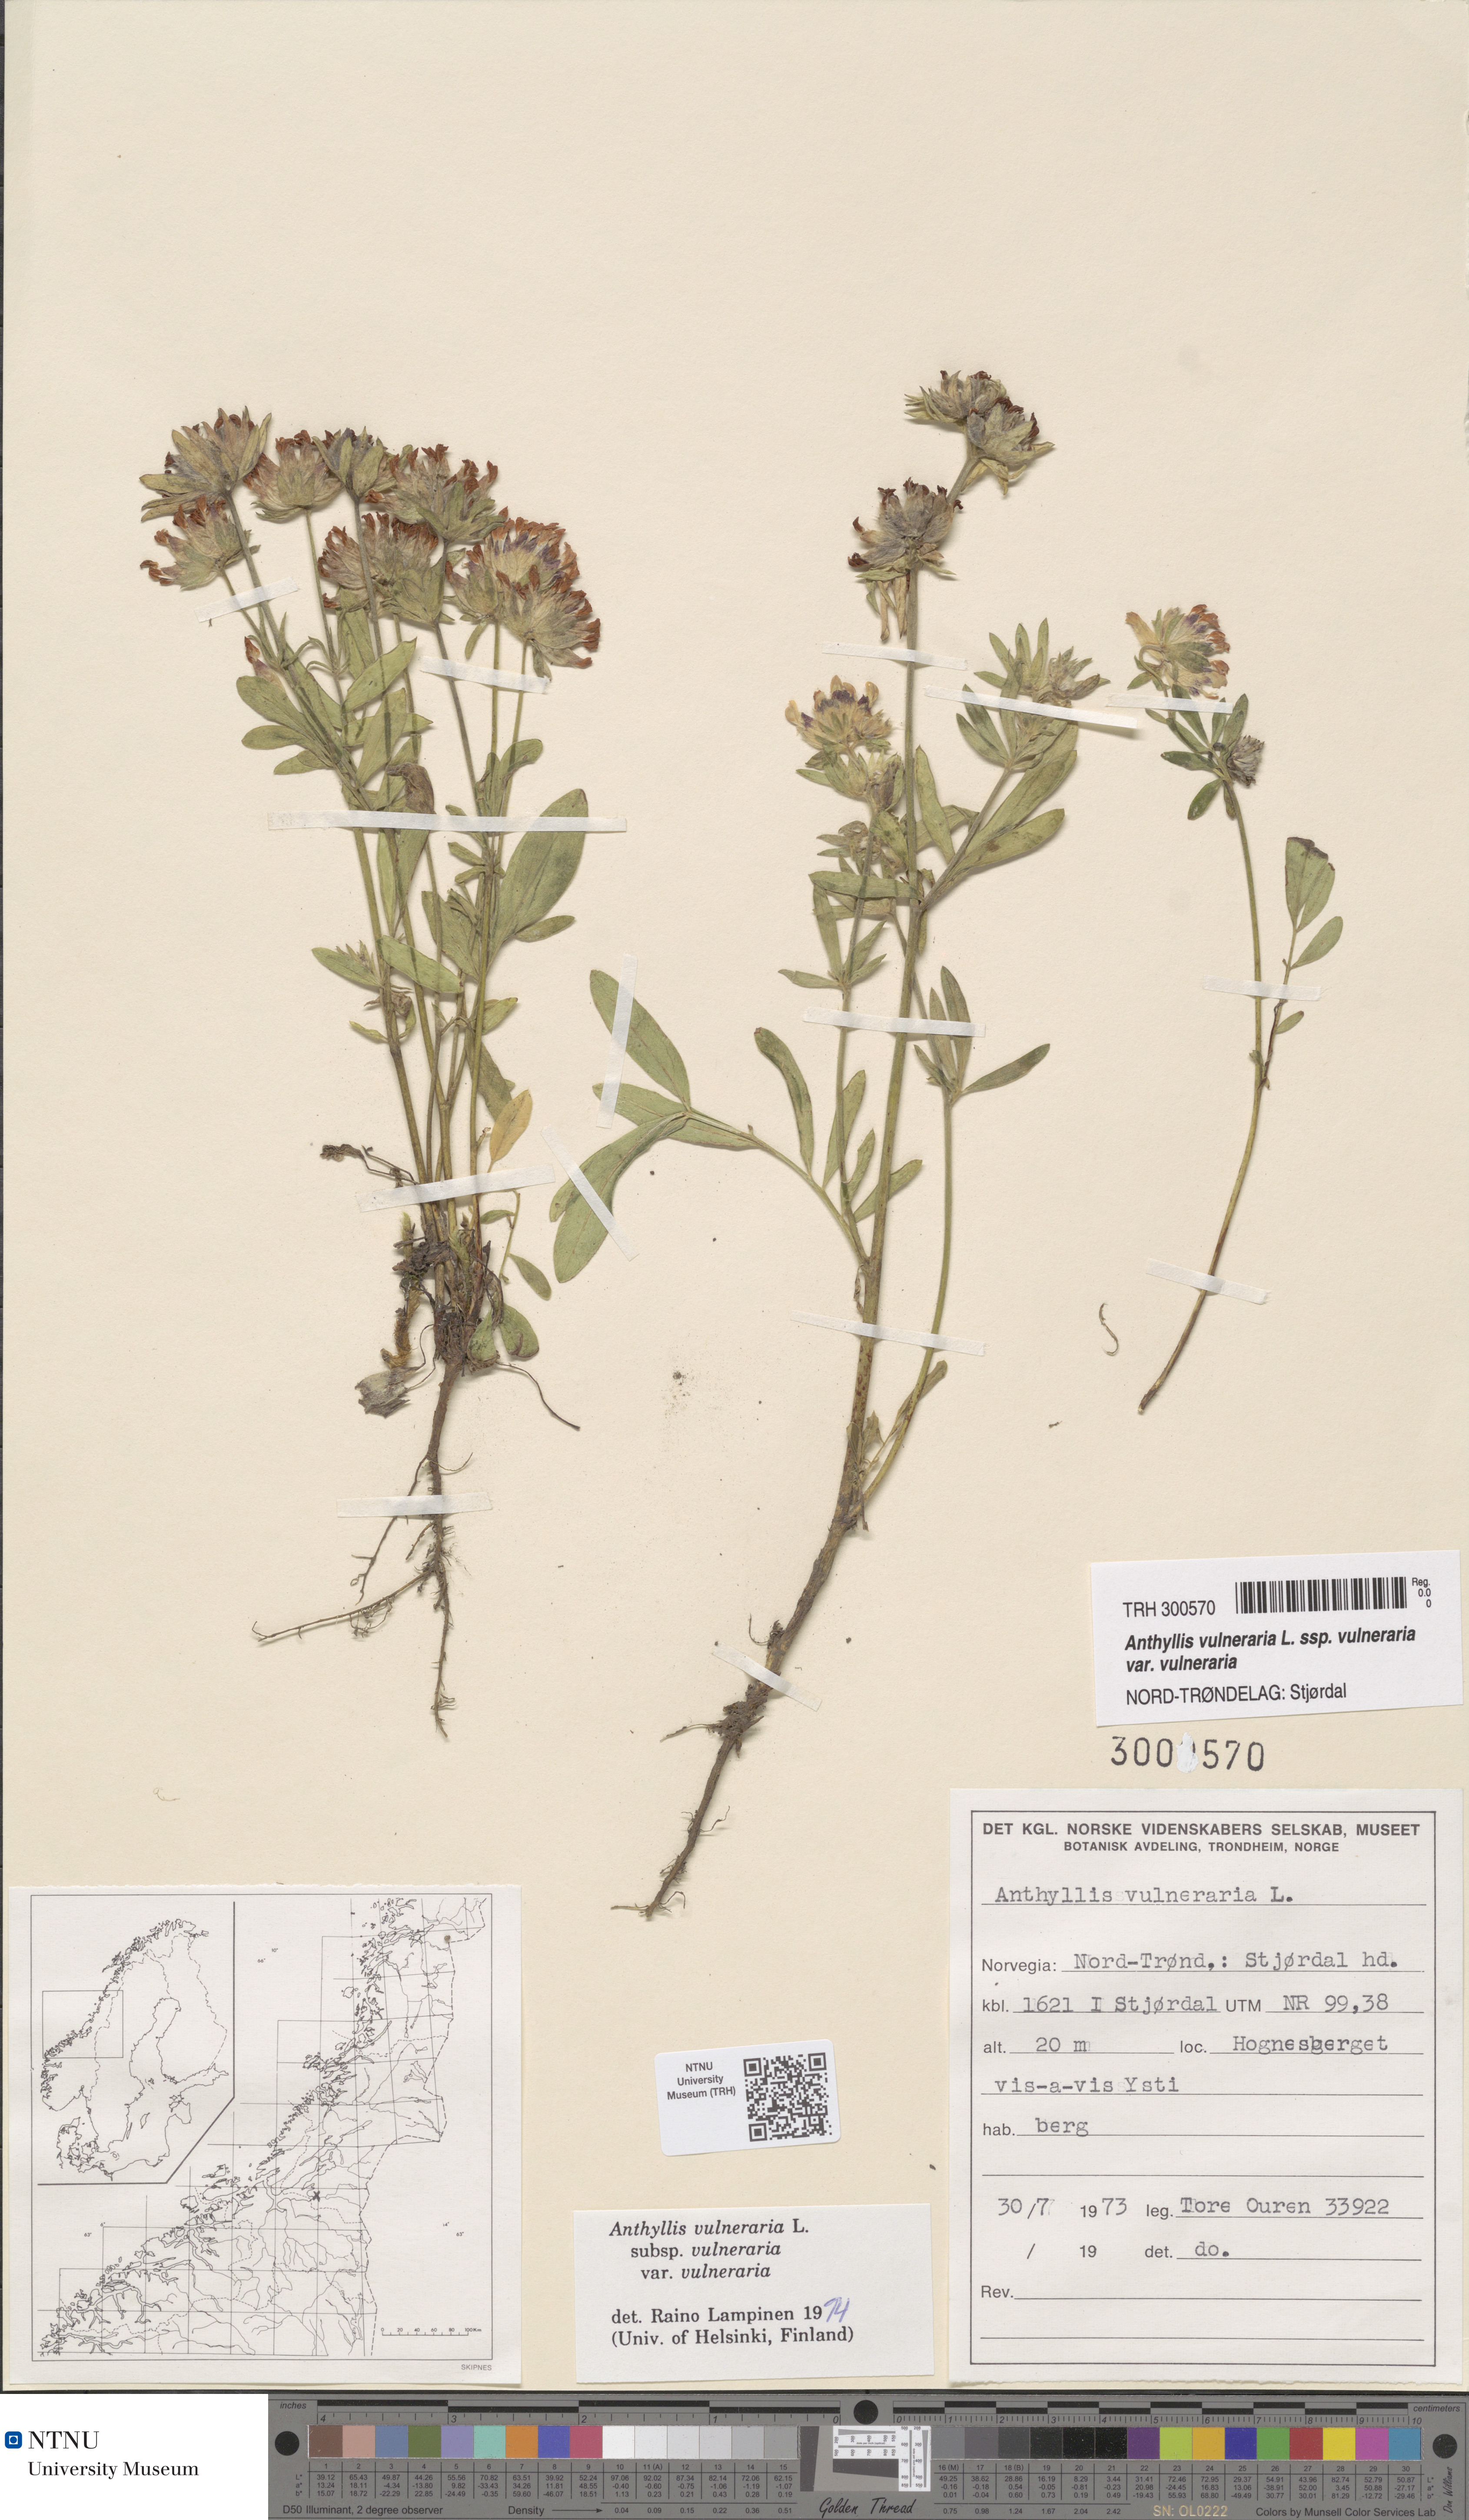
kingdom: Plantae
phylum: Tracheophyta
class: Magnoliopsida
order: Fabales
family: Fabaceae
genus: Anthyllis
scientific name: Anthyllis vulneraria
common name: Kidney vetch
